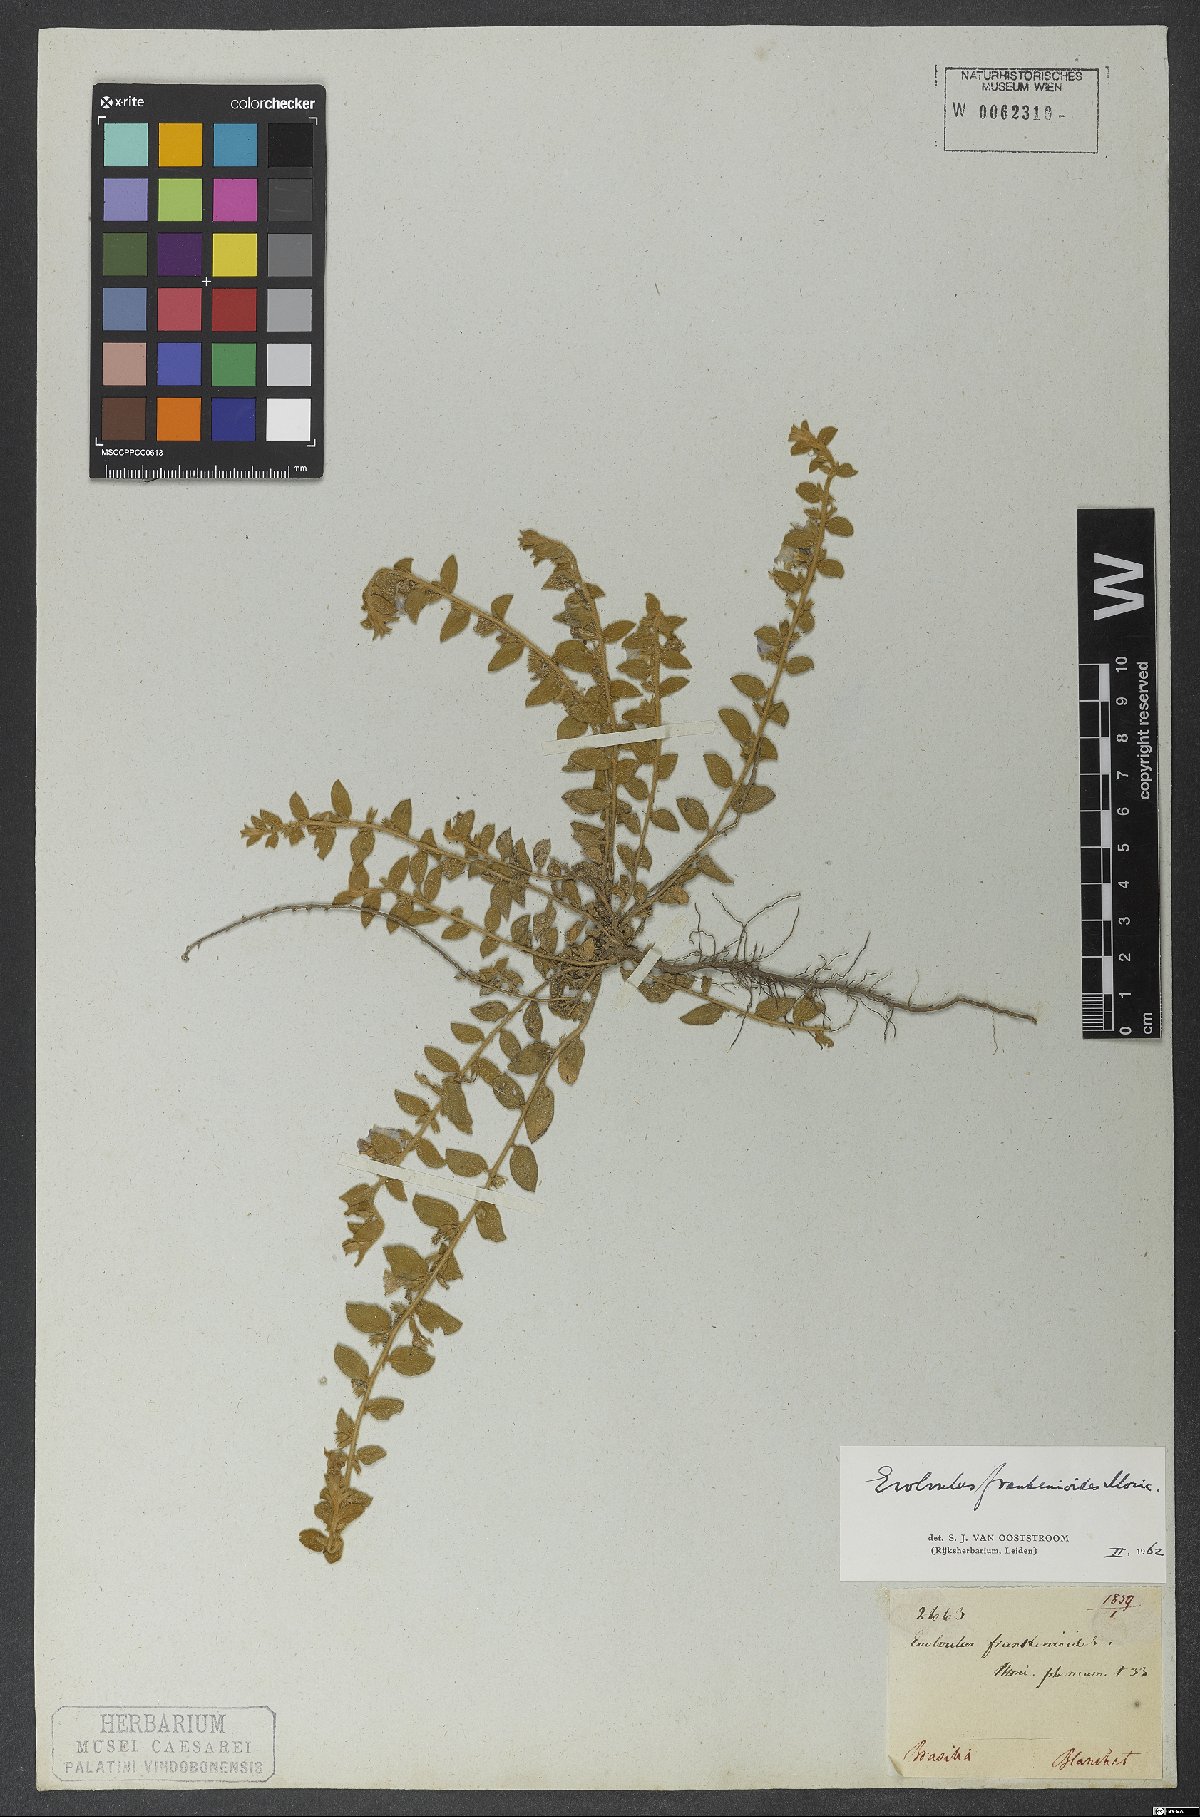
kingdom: Plantae
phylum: Tracheophyta
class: Magnoliopsida
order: Solanales
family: Convolvulaceae
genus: Evolvulus
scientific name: Evolvulus frankenioides
